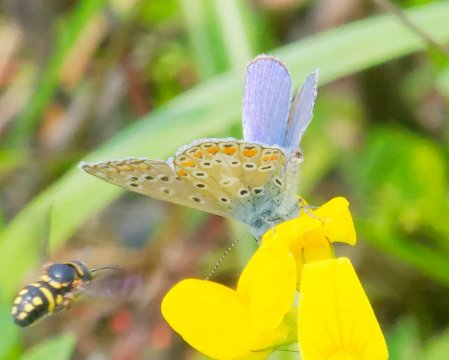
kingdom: Animalia
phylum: Arthropoda
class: Insecta
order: Lepidoptera
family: Lycaenidae
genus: Polyommatus
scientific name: Polyommatus icarus
